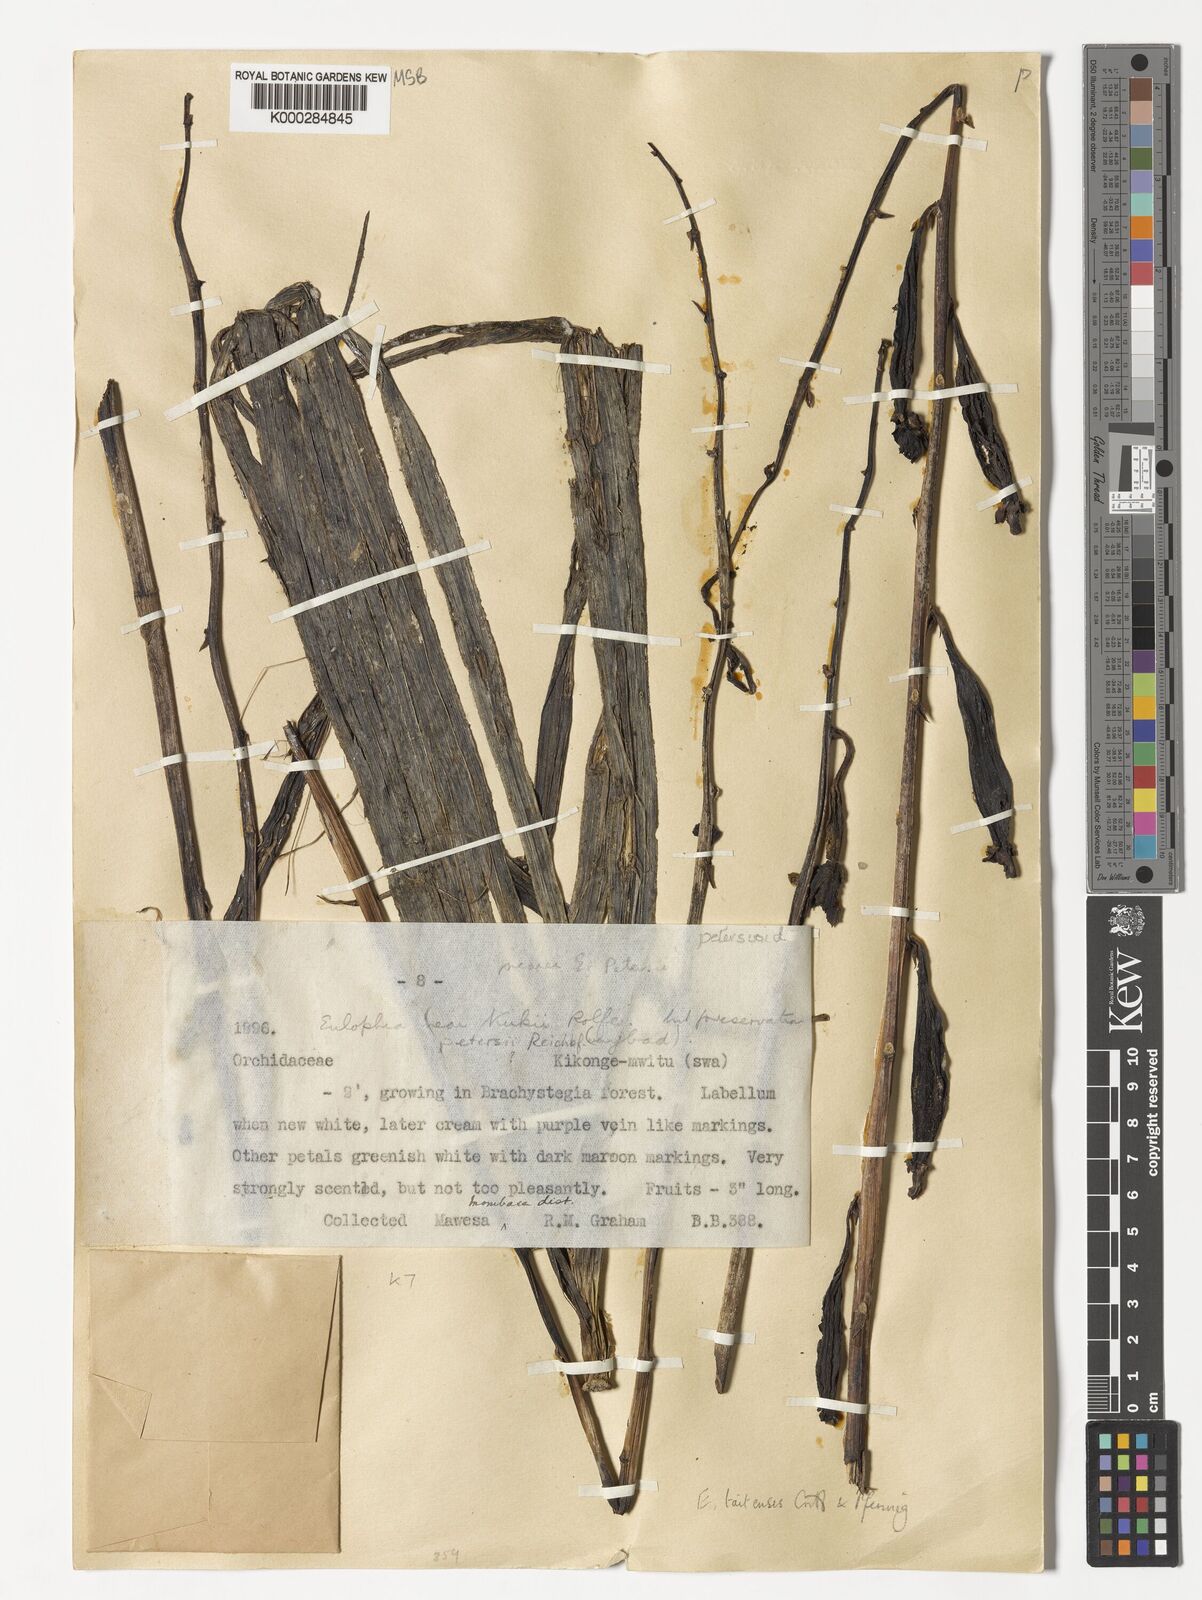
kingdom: Plantae
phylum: Tracheophyta
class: Liliopsida
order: Asparagales
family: Orchidaceae
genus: Eulophia
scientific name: Eulophia taitensis
